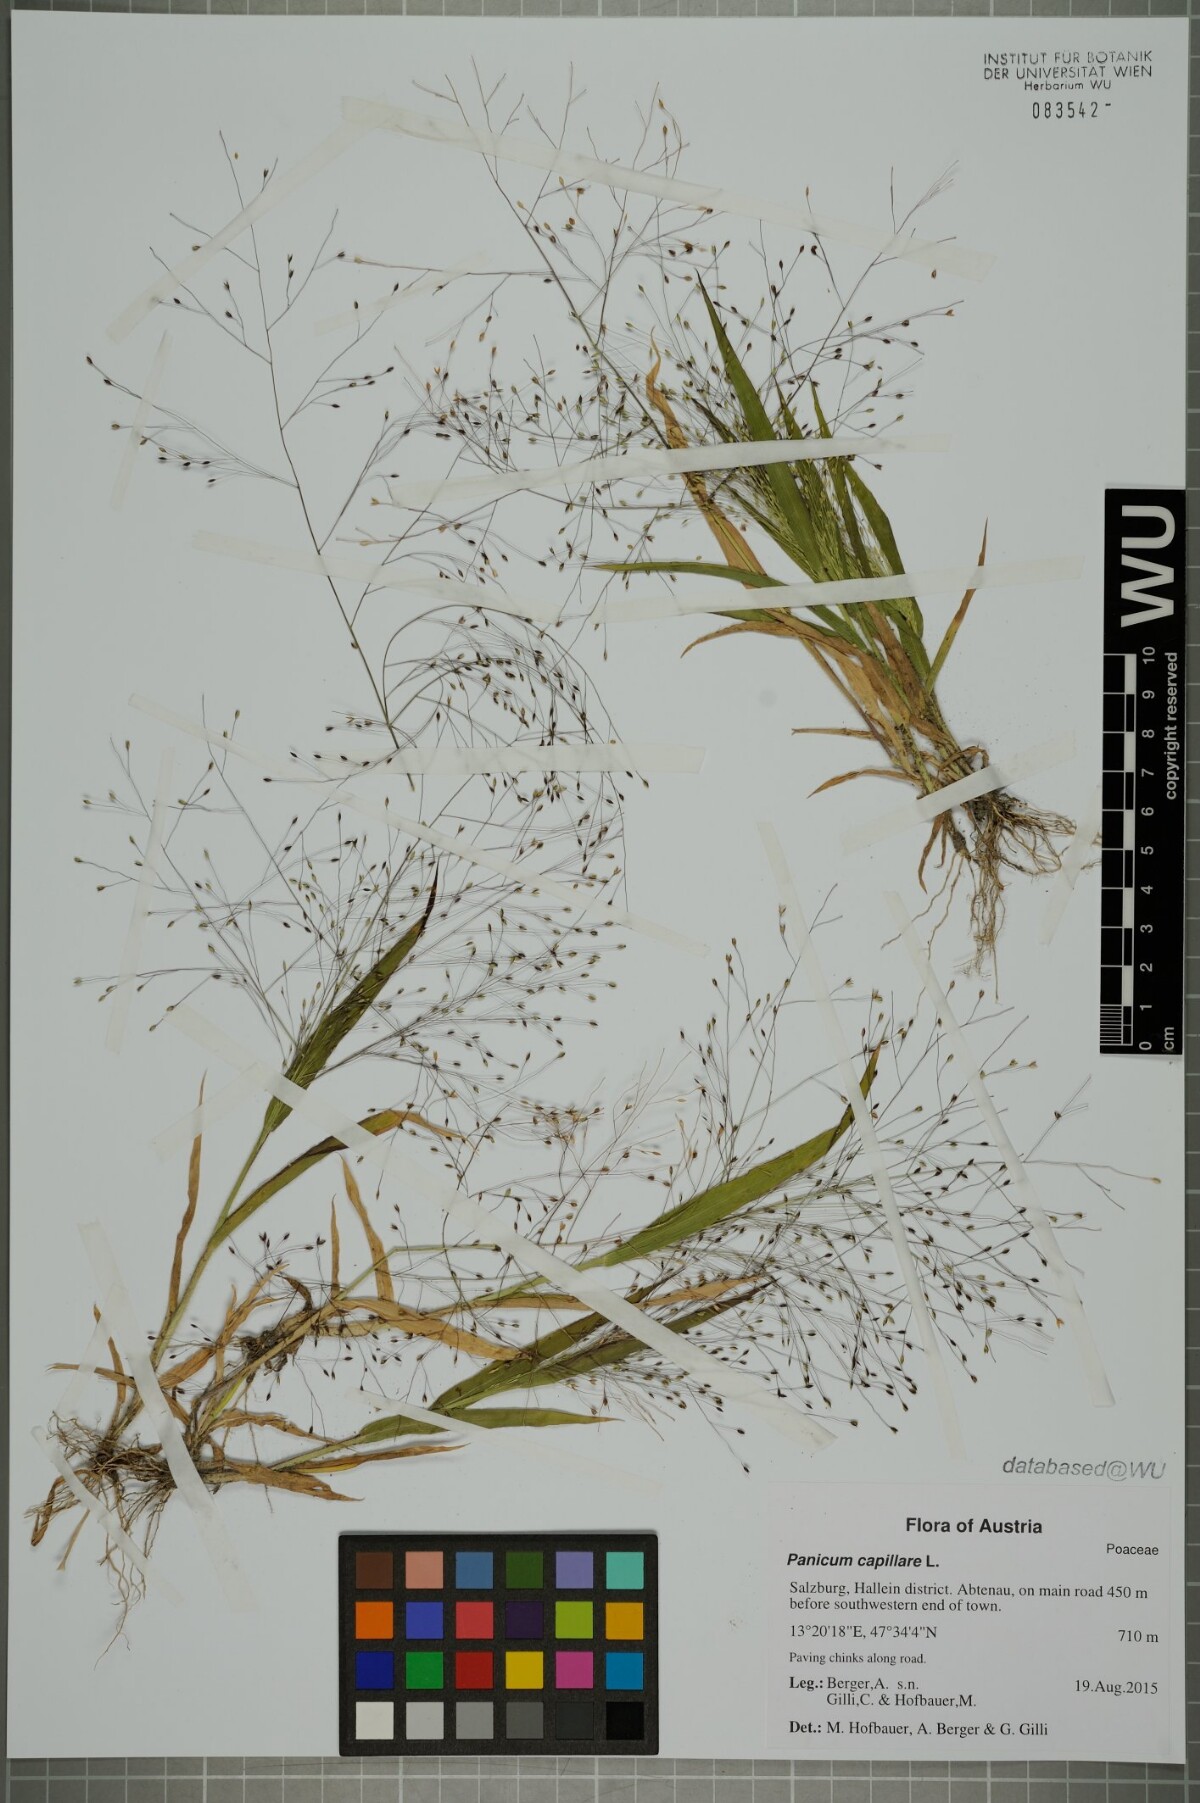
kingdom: Plantae
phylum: Tracheophyta
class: Liliopsida
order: Poales
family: Poaceae
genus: Panicum
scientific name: Panicum capillare
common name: Witch-grass
